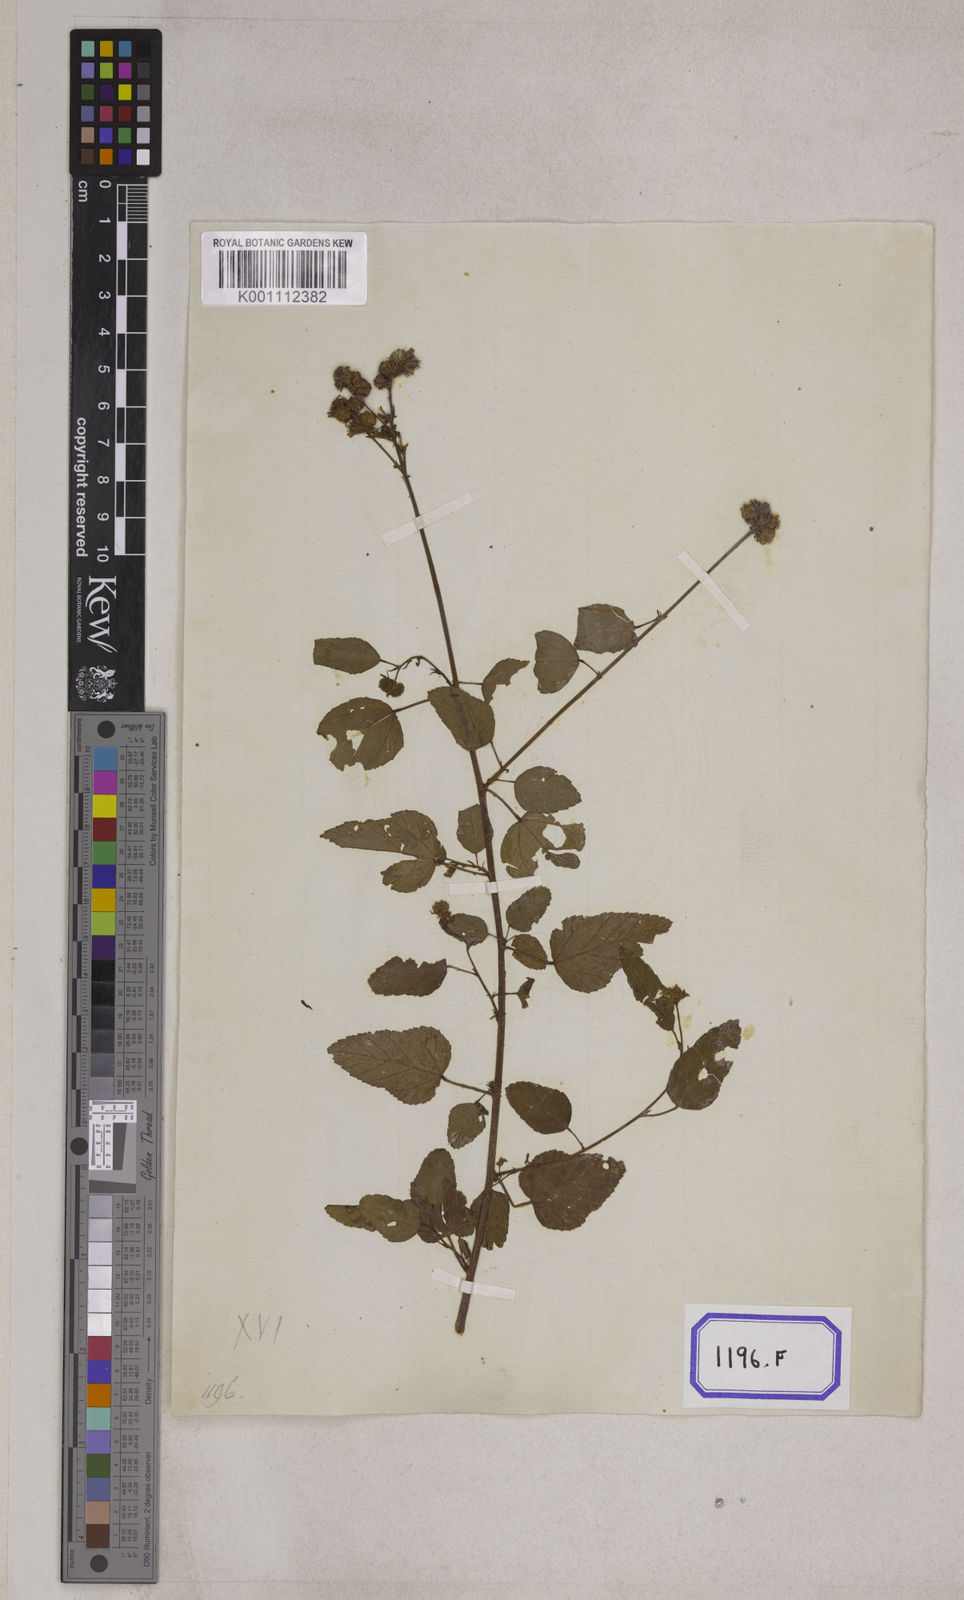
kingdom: Plantae
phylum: Tracheophyta
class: Magnoliopsida
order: Malvales
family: Malvaceae
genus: Melochia
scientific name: Melochia corchorifolia
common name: Chocolateweed
